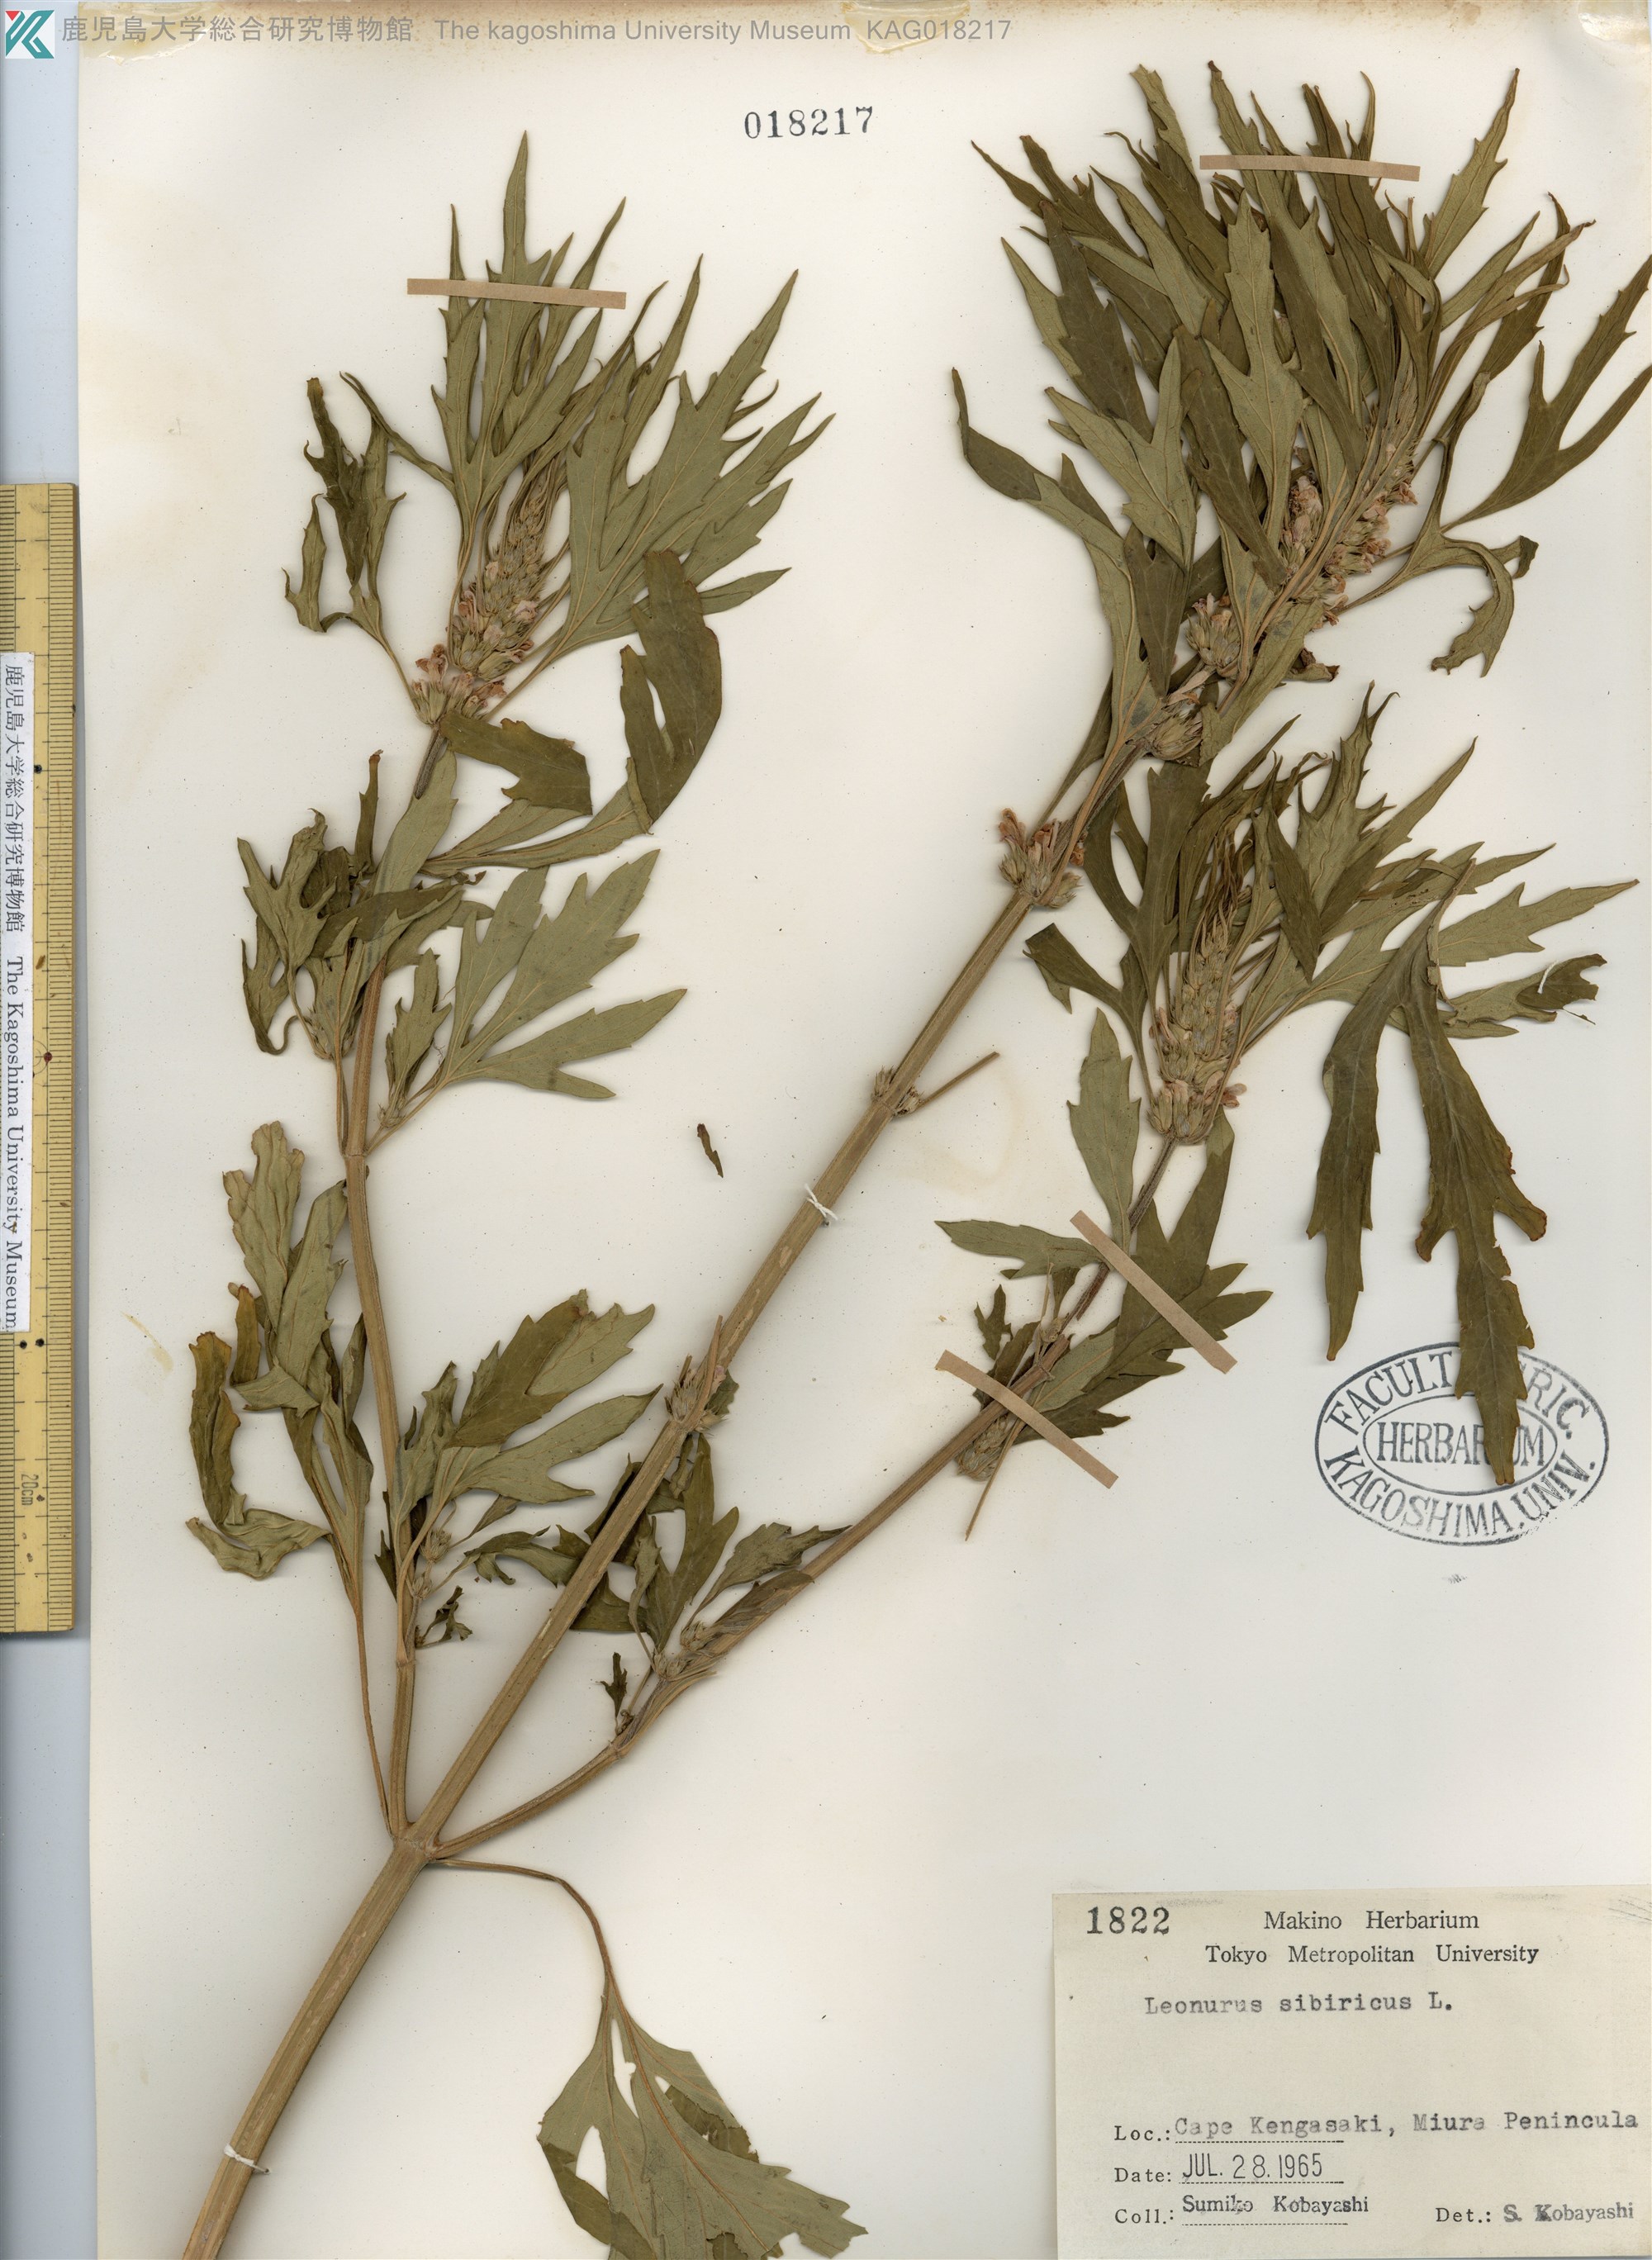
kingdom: Plantae
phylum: Tracheophyta
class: Magnoliopsida
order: Lamiales
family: Lamiaceae
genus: Leonurus
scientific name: Leonurus japonicus
